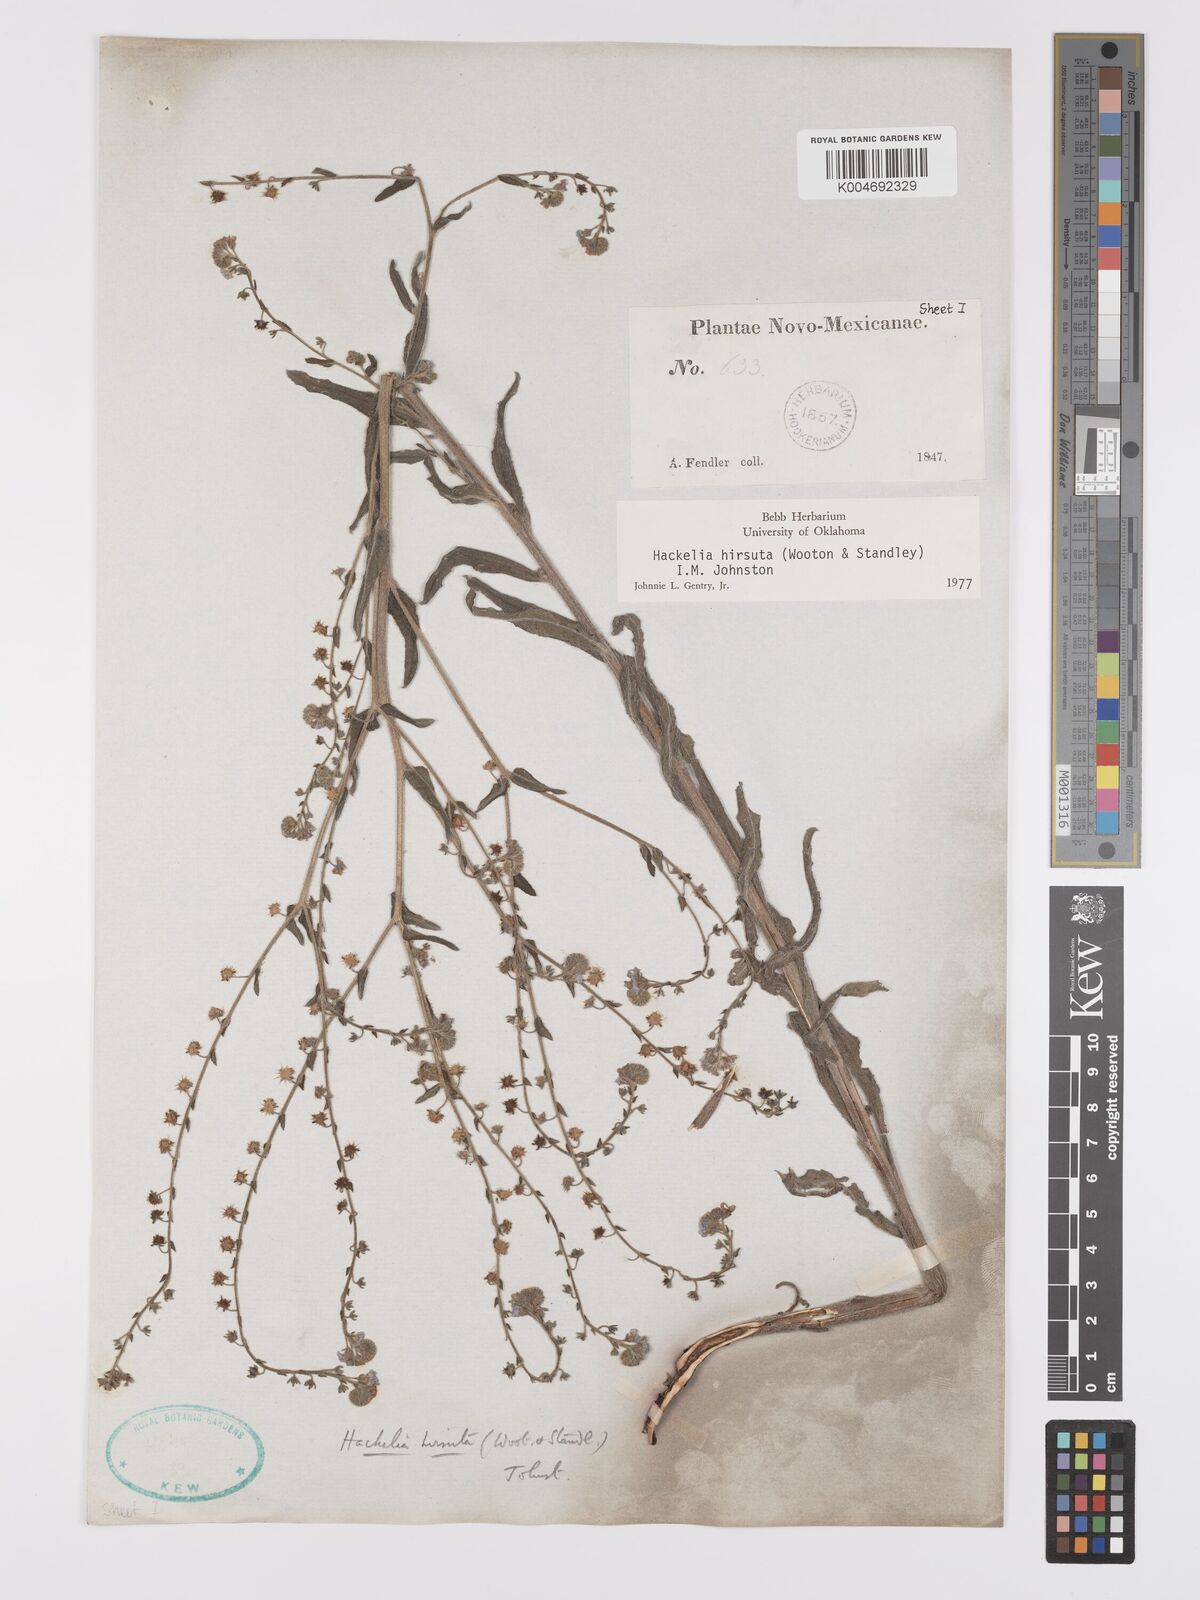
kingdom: Plantae
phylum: Tracheophyta
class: Magnoliopsida
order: Boraginales
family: Boraginaceae
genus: Hackelia
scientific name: Hackelia hirsuta
